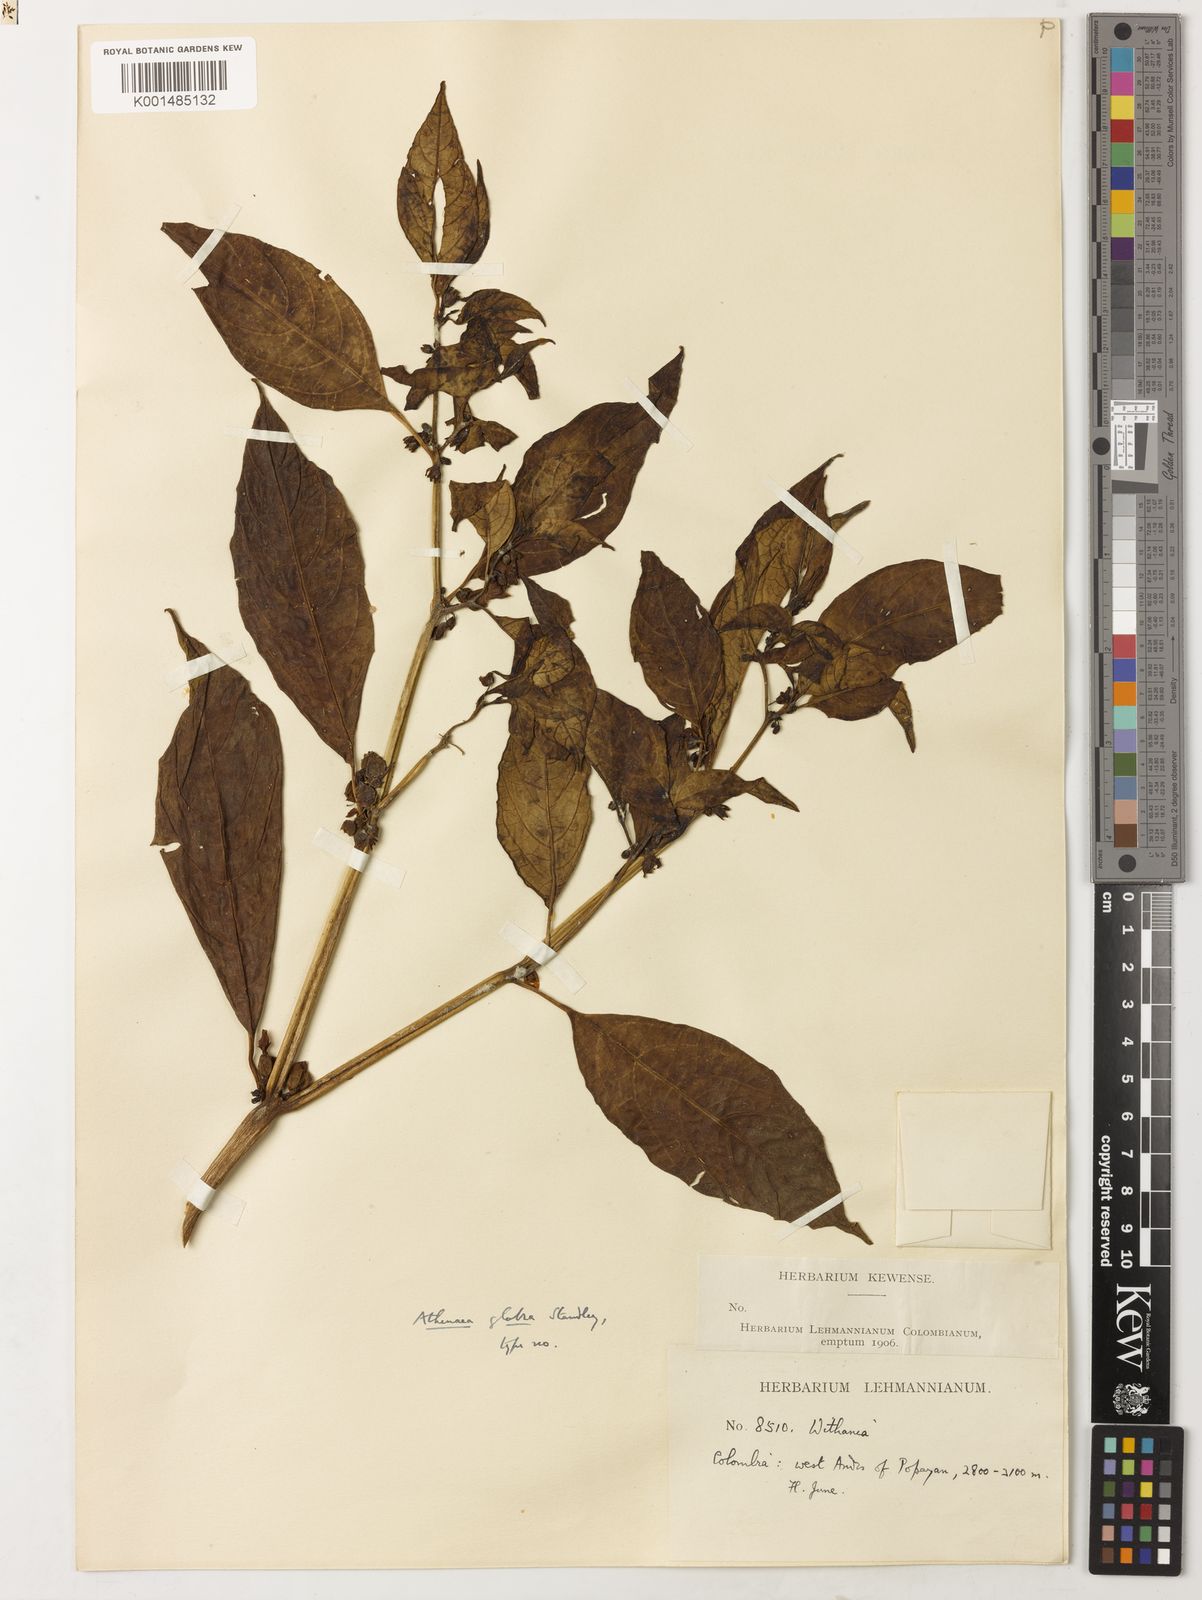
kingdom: Plantae
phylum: Tracheophyta
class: Magnoliopsida
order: Solanales
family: Solanaceae
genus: Deprea
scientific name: Deprea glabra
